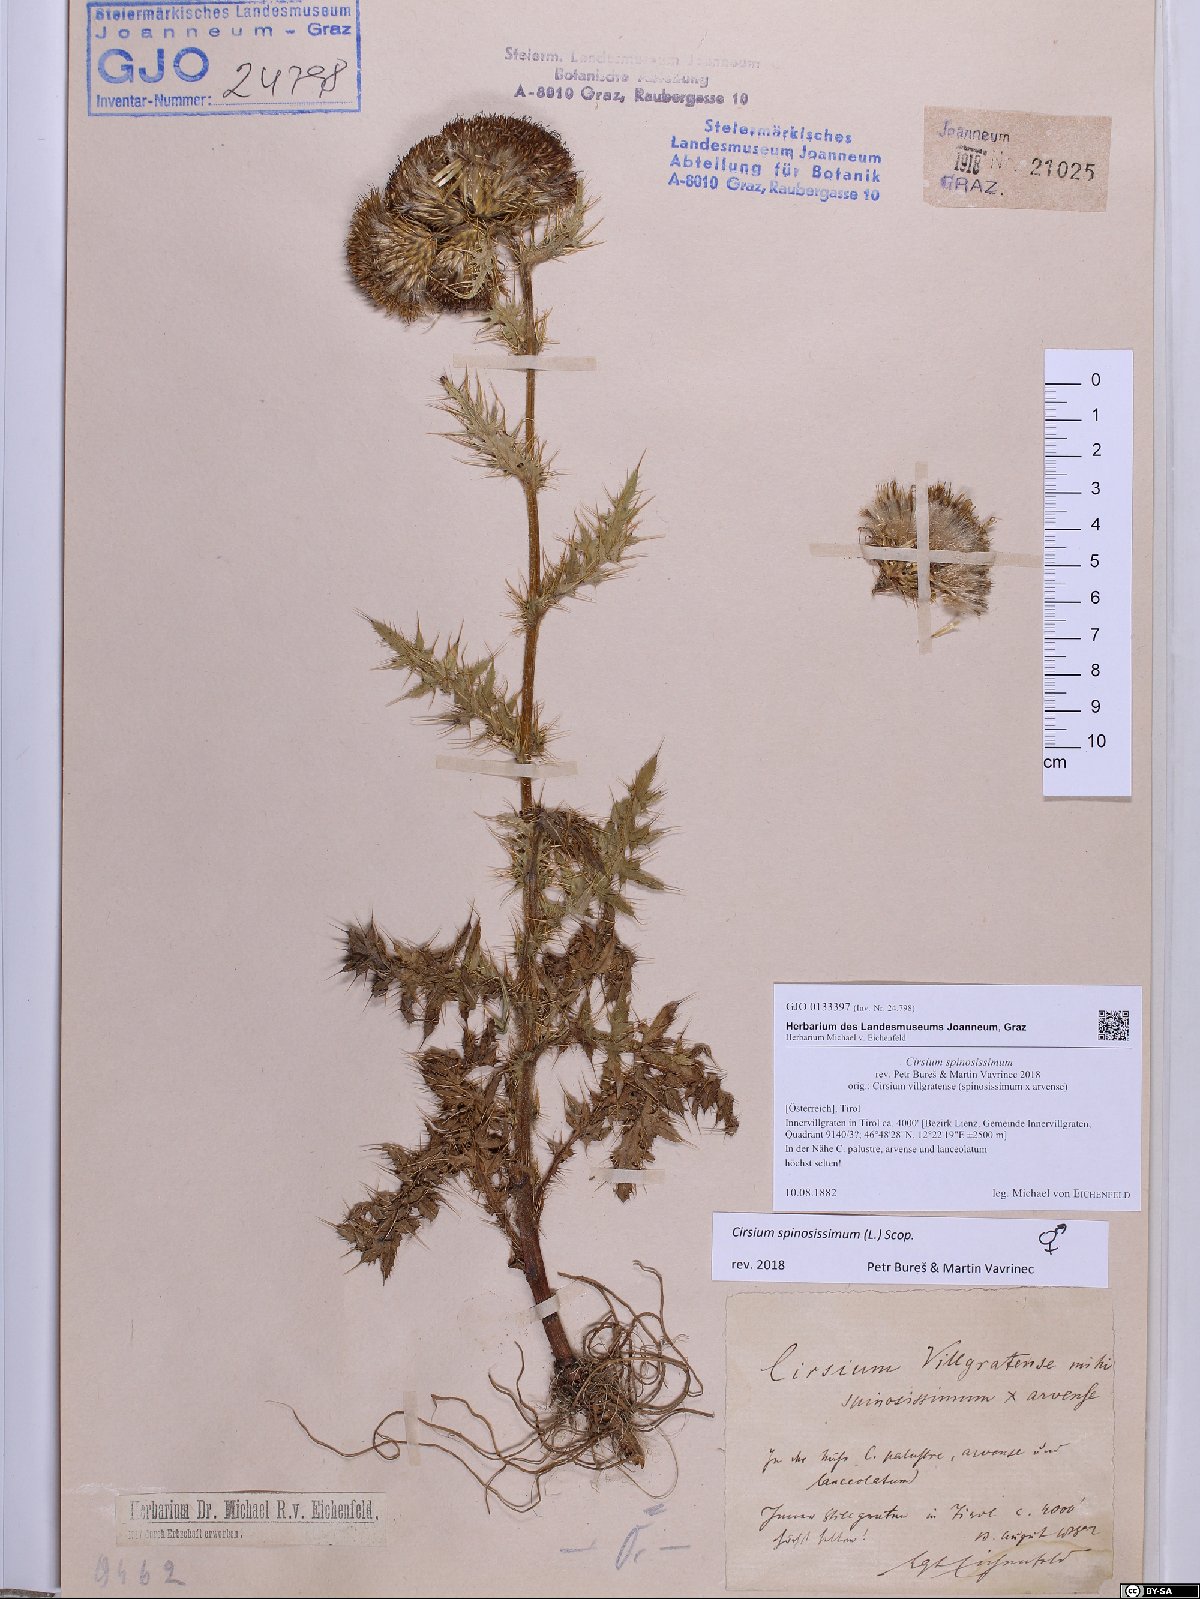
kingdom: Plantae
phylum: Tracheophyta
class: Magnoliopsida
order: Asterales
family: Asteraceae
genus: Cirsium
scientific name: Cirsium spinosissimum
